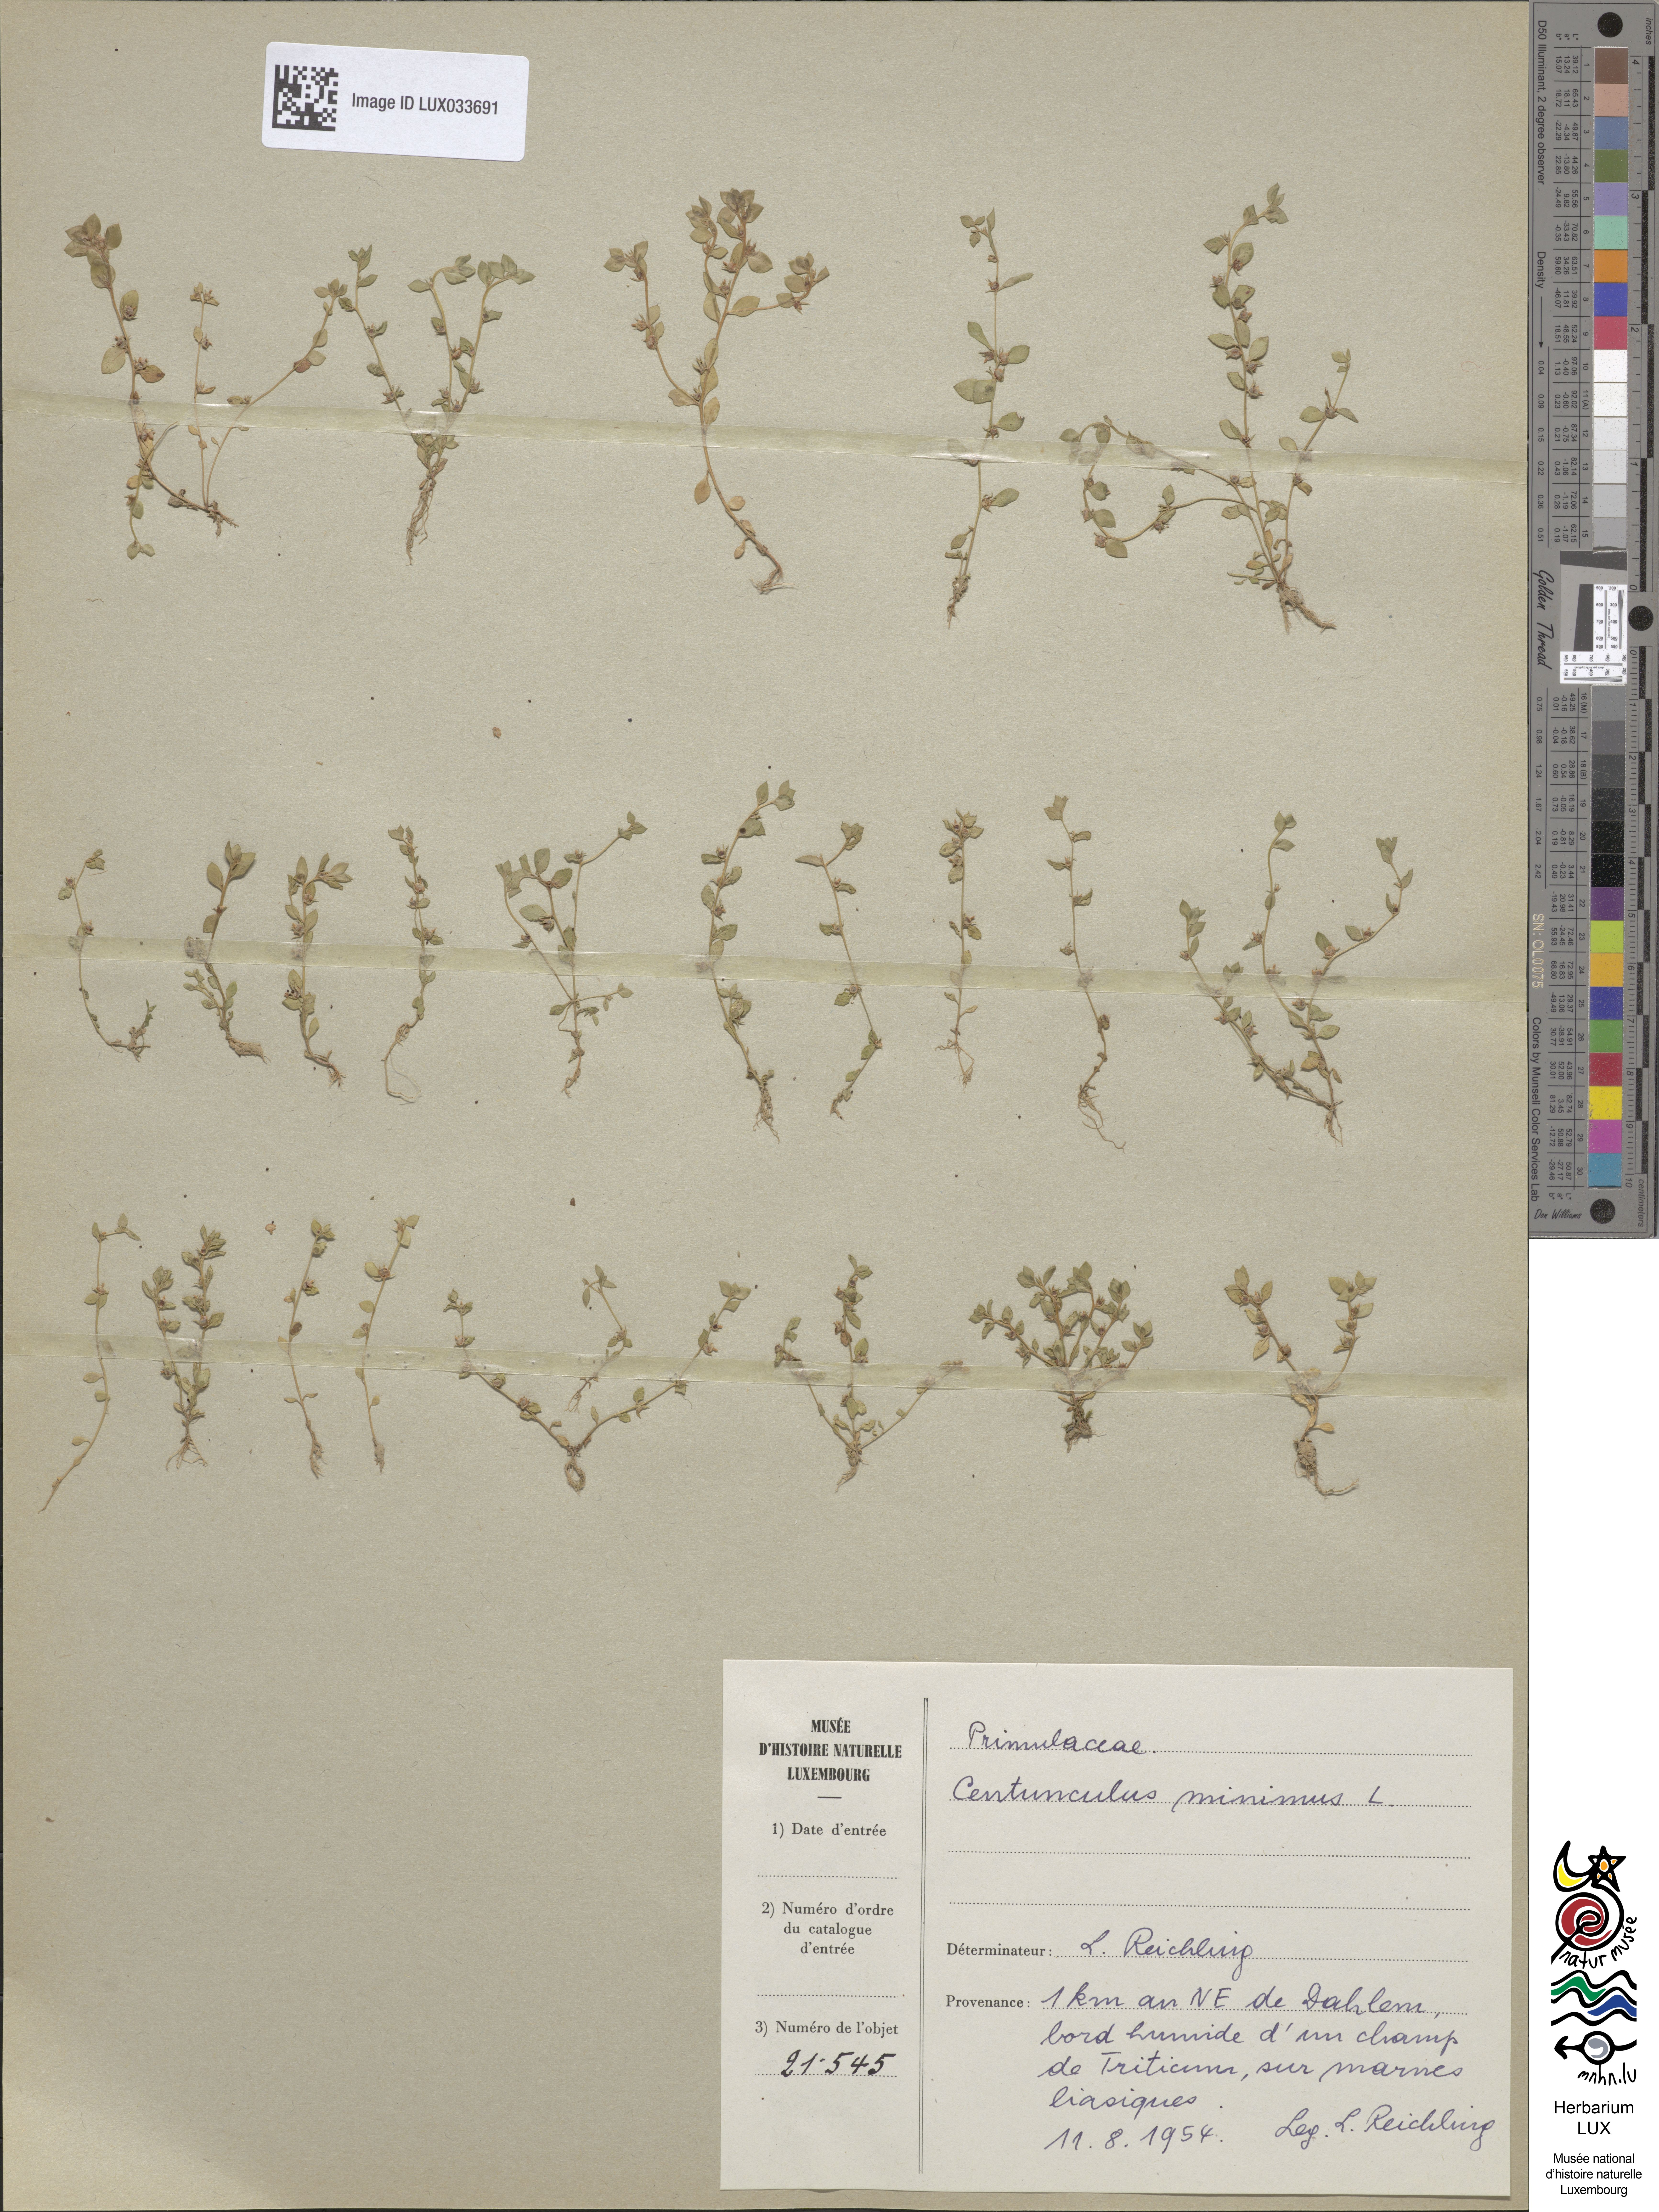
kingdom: Plantae
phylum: Tracheophyta
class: Magnoliopsida
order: Ericales
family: Primulaceae
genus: Lysimachia
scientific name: Lysimachia minima
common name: Chaffweed
